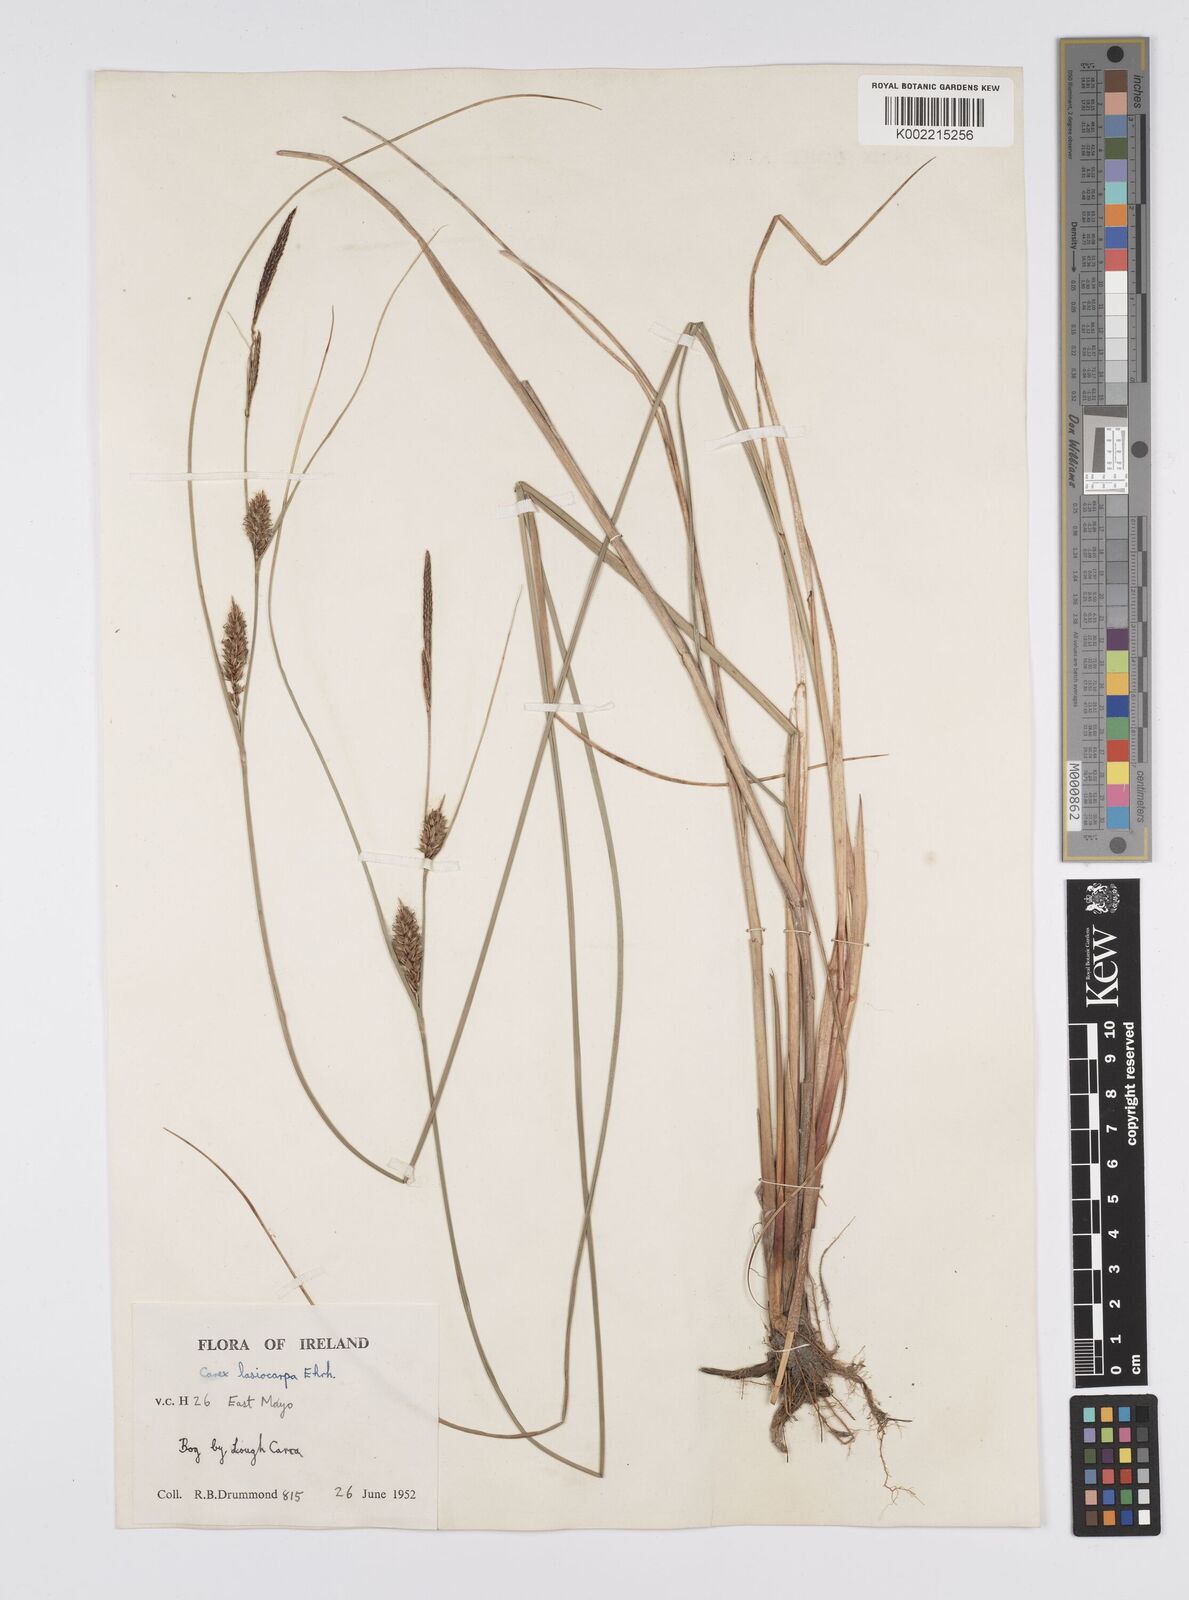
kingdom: Plantae
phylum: Tracheophyta
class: Liliopsida
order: Poales
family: Cyperaceae
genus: Carex
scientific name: Carex lasiocarpa
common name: Slender sedge
